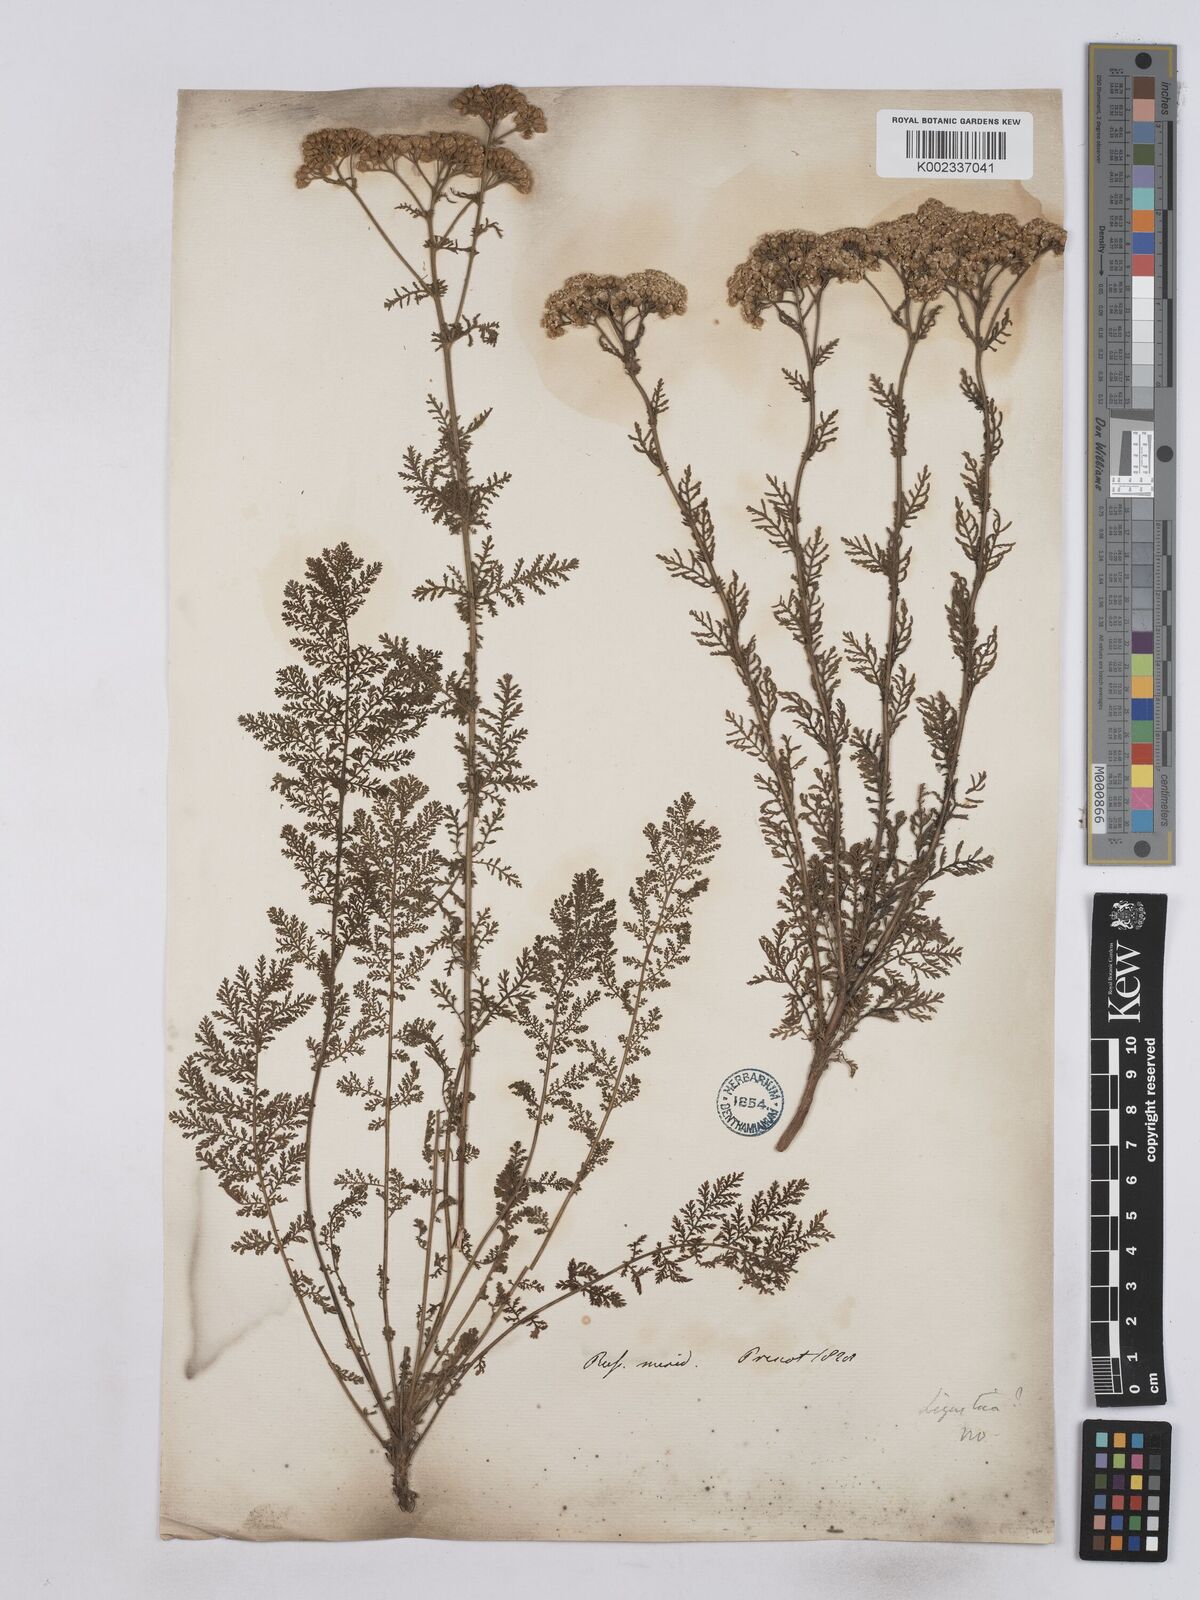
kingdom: Plantae
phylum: Tracheophyta
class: Magnoliopsida
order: Asterales
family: Asteraceae
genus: Achillea
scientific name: Achillea nobilis
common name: Noble yarrow
